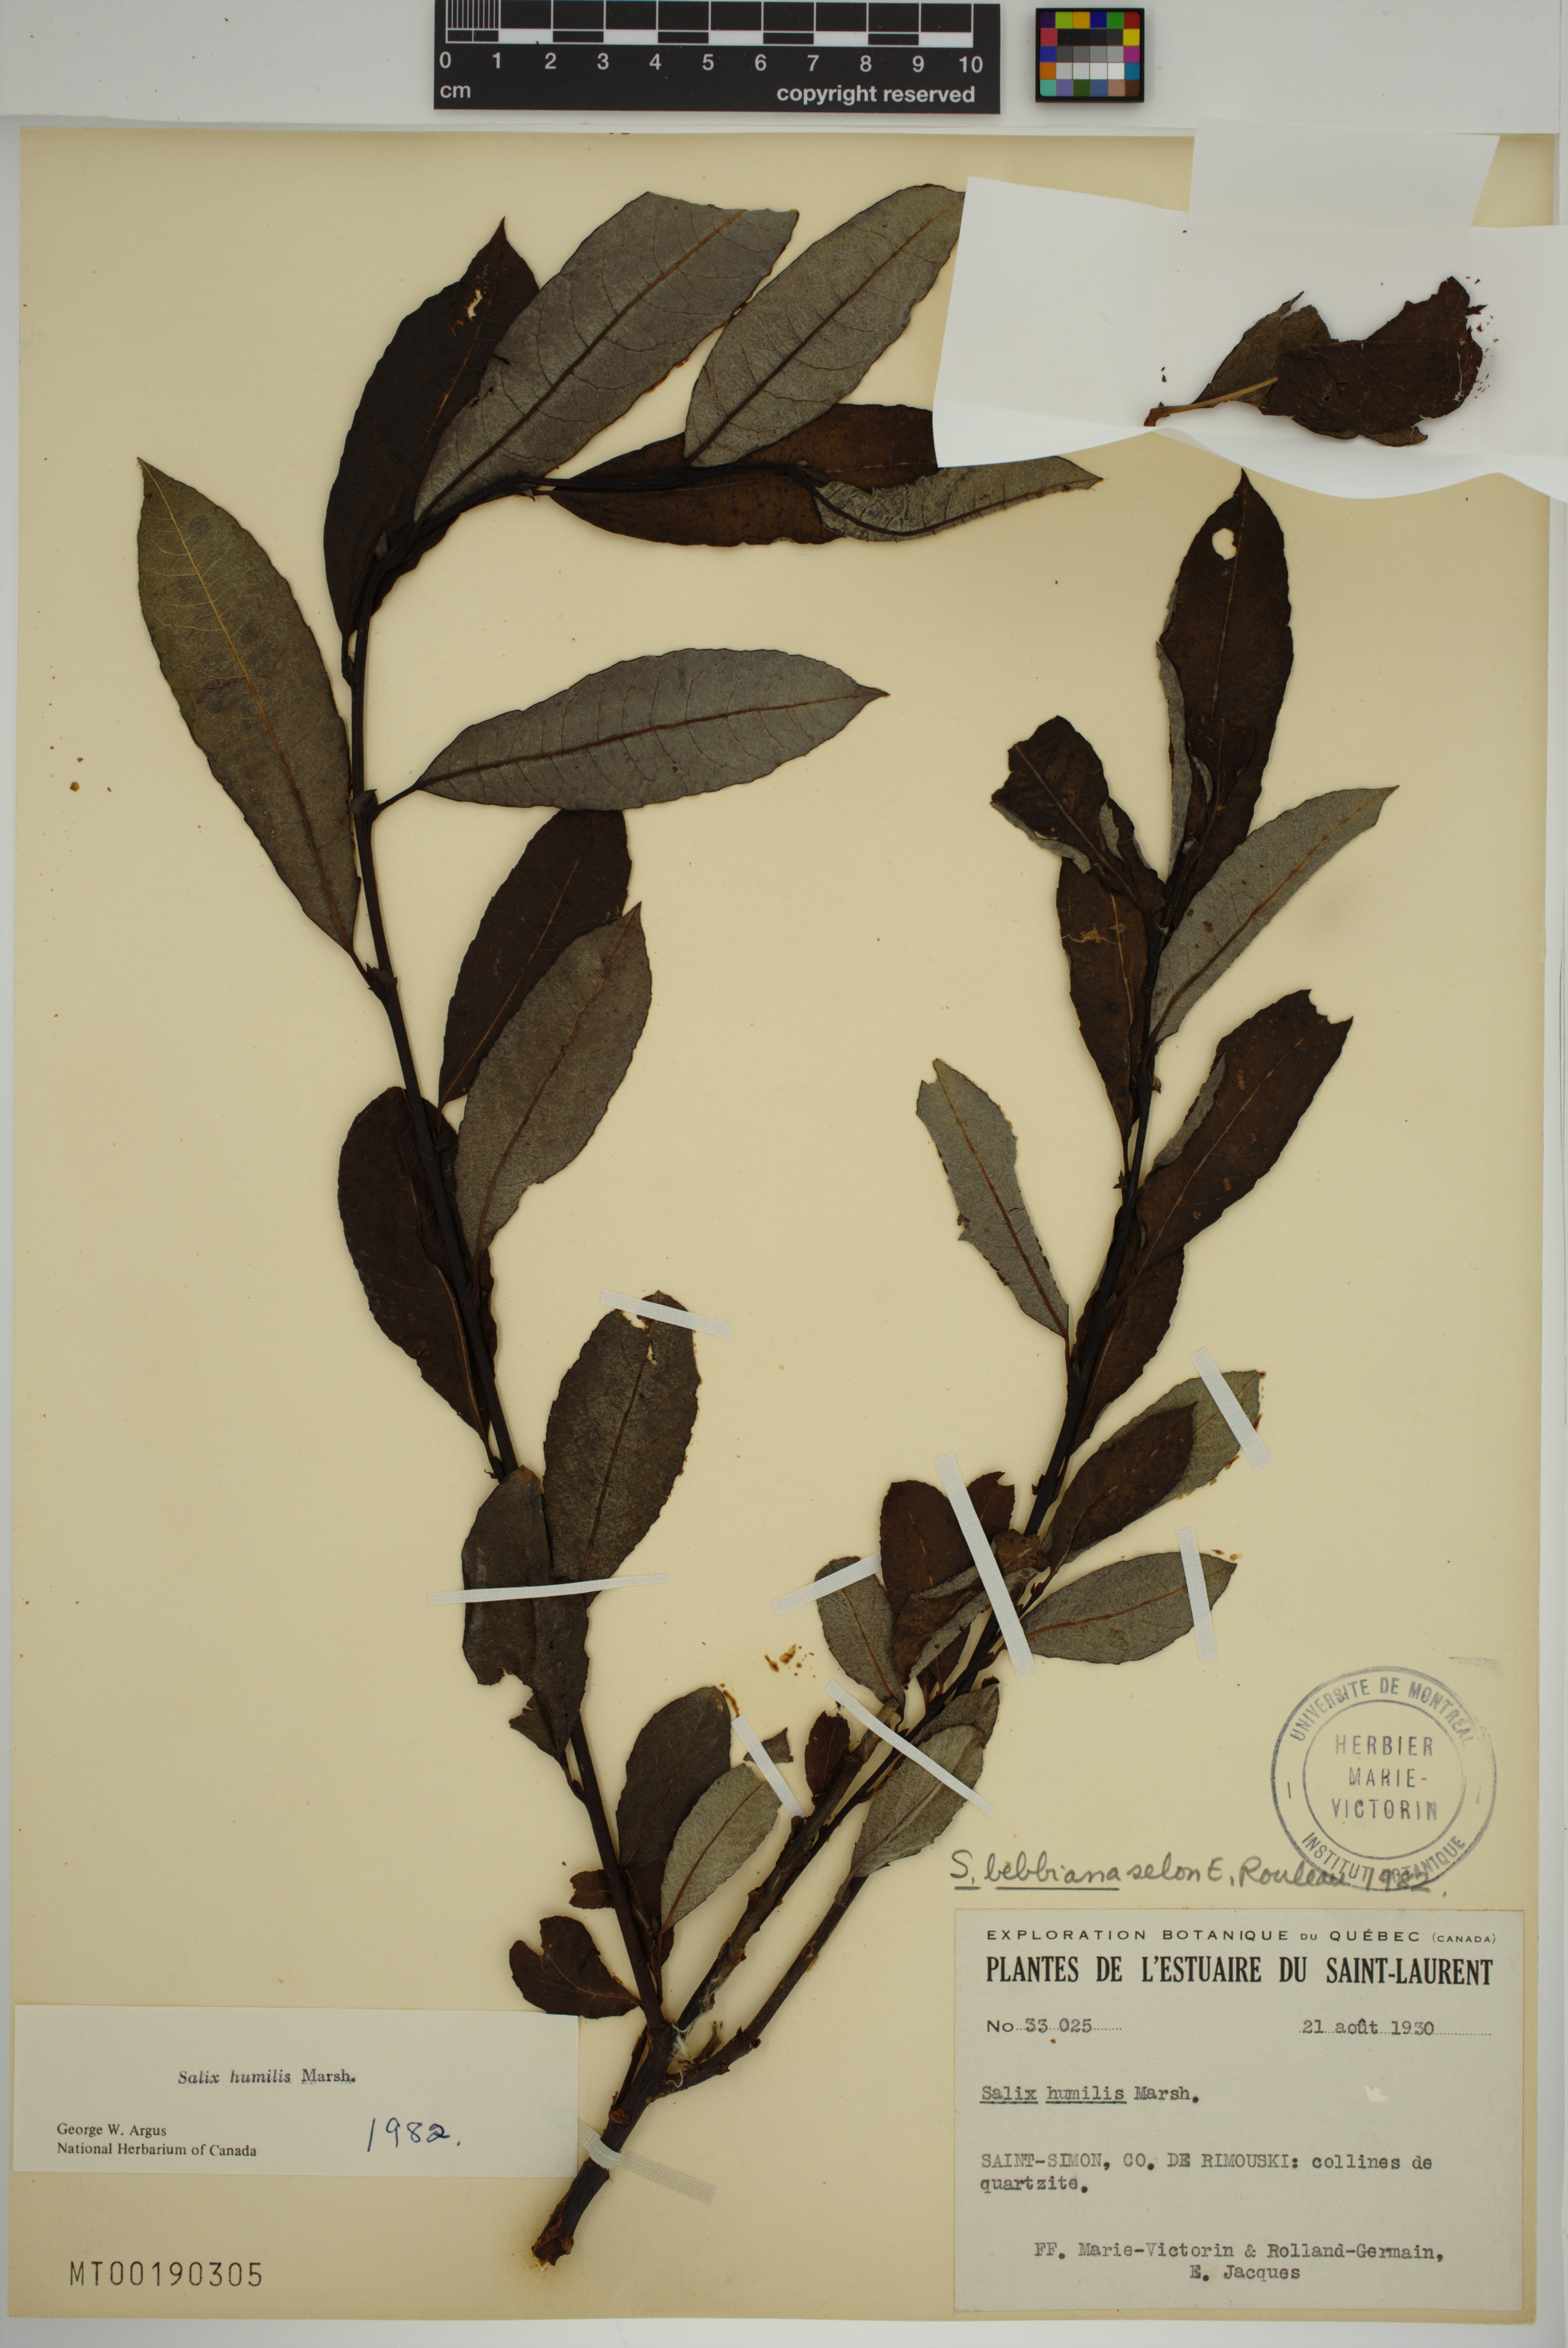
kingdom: Plantae
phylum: Tracheophyta
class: Magnoliopsida
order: Malpighiales
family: Salicaceae
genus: Salix
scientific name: Salix humilis
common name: Prairie willow
